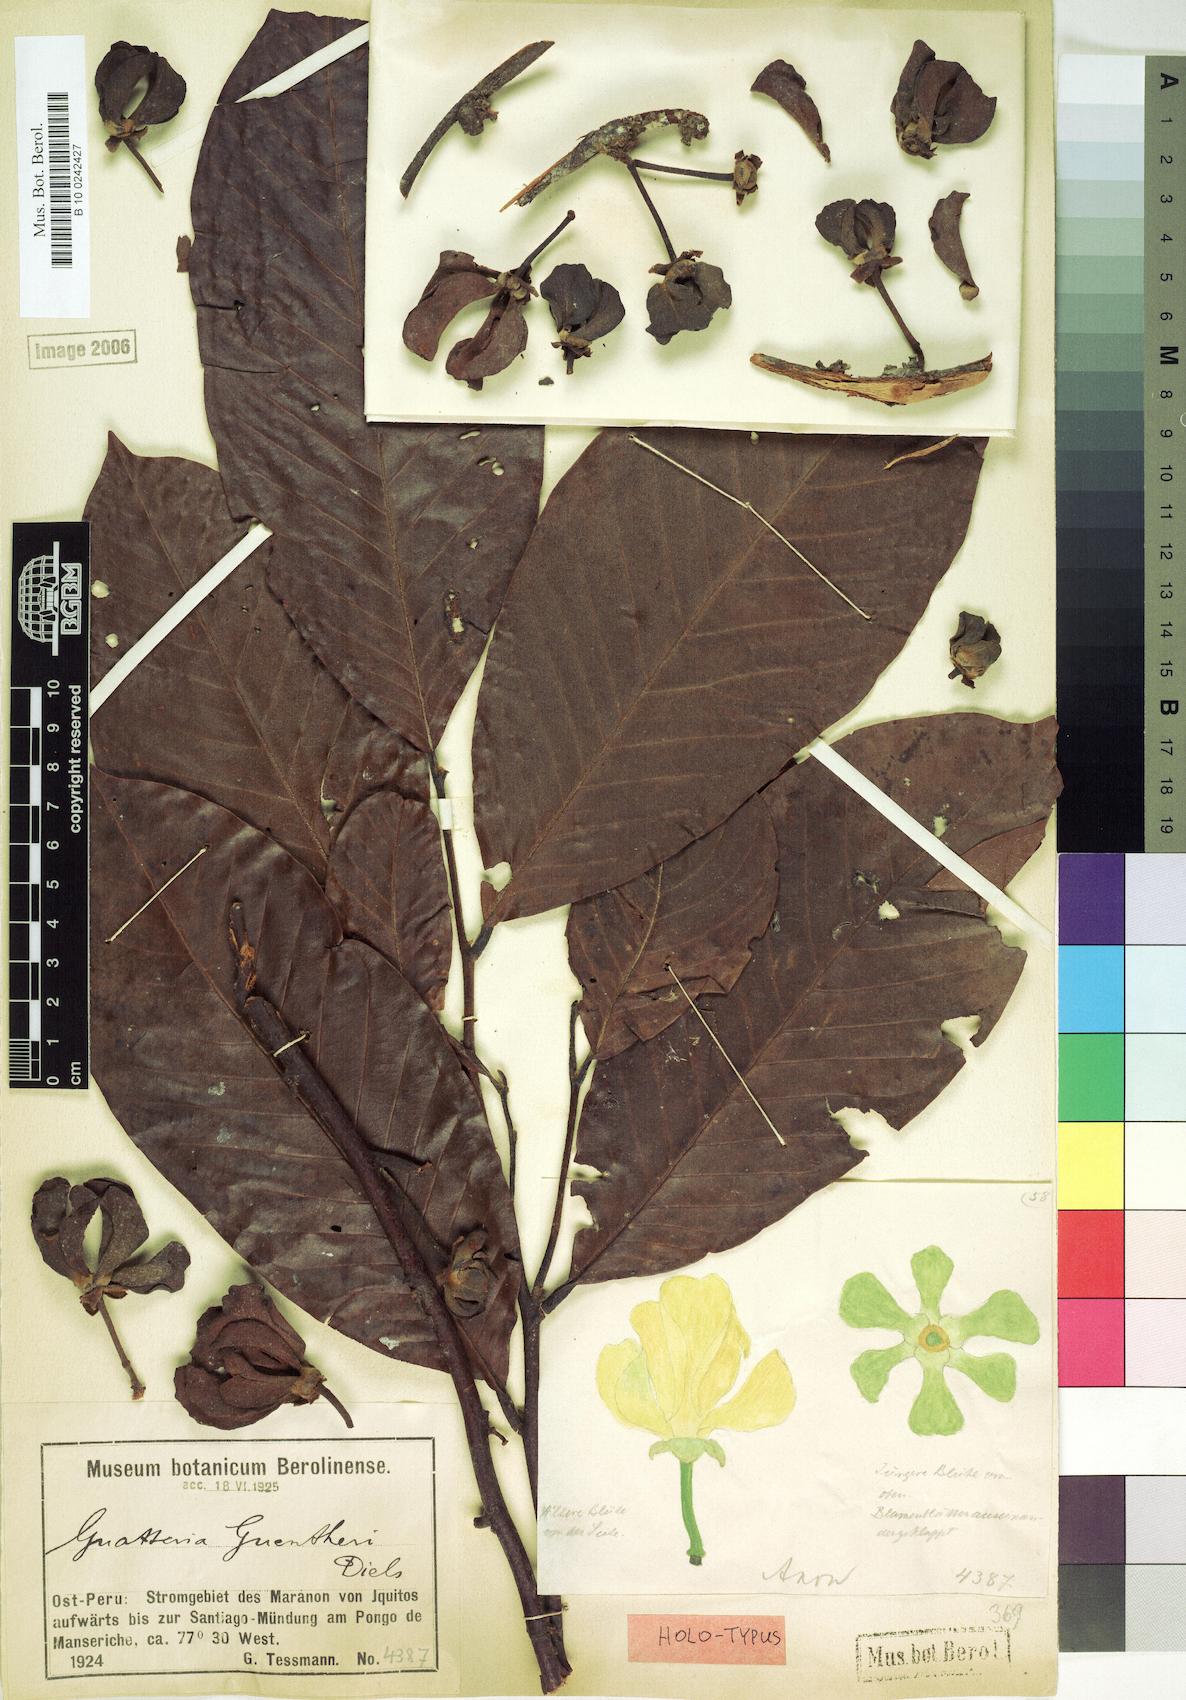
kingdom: Plantae
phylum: Tracheophyta
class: Magnoliopsida
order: Magnoliales
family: Annonaceae
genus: Guatteria
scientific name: Guatteria punctata
